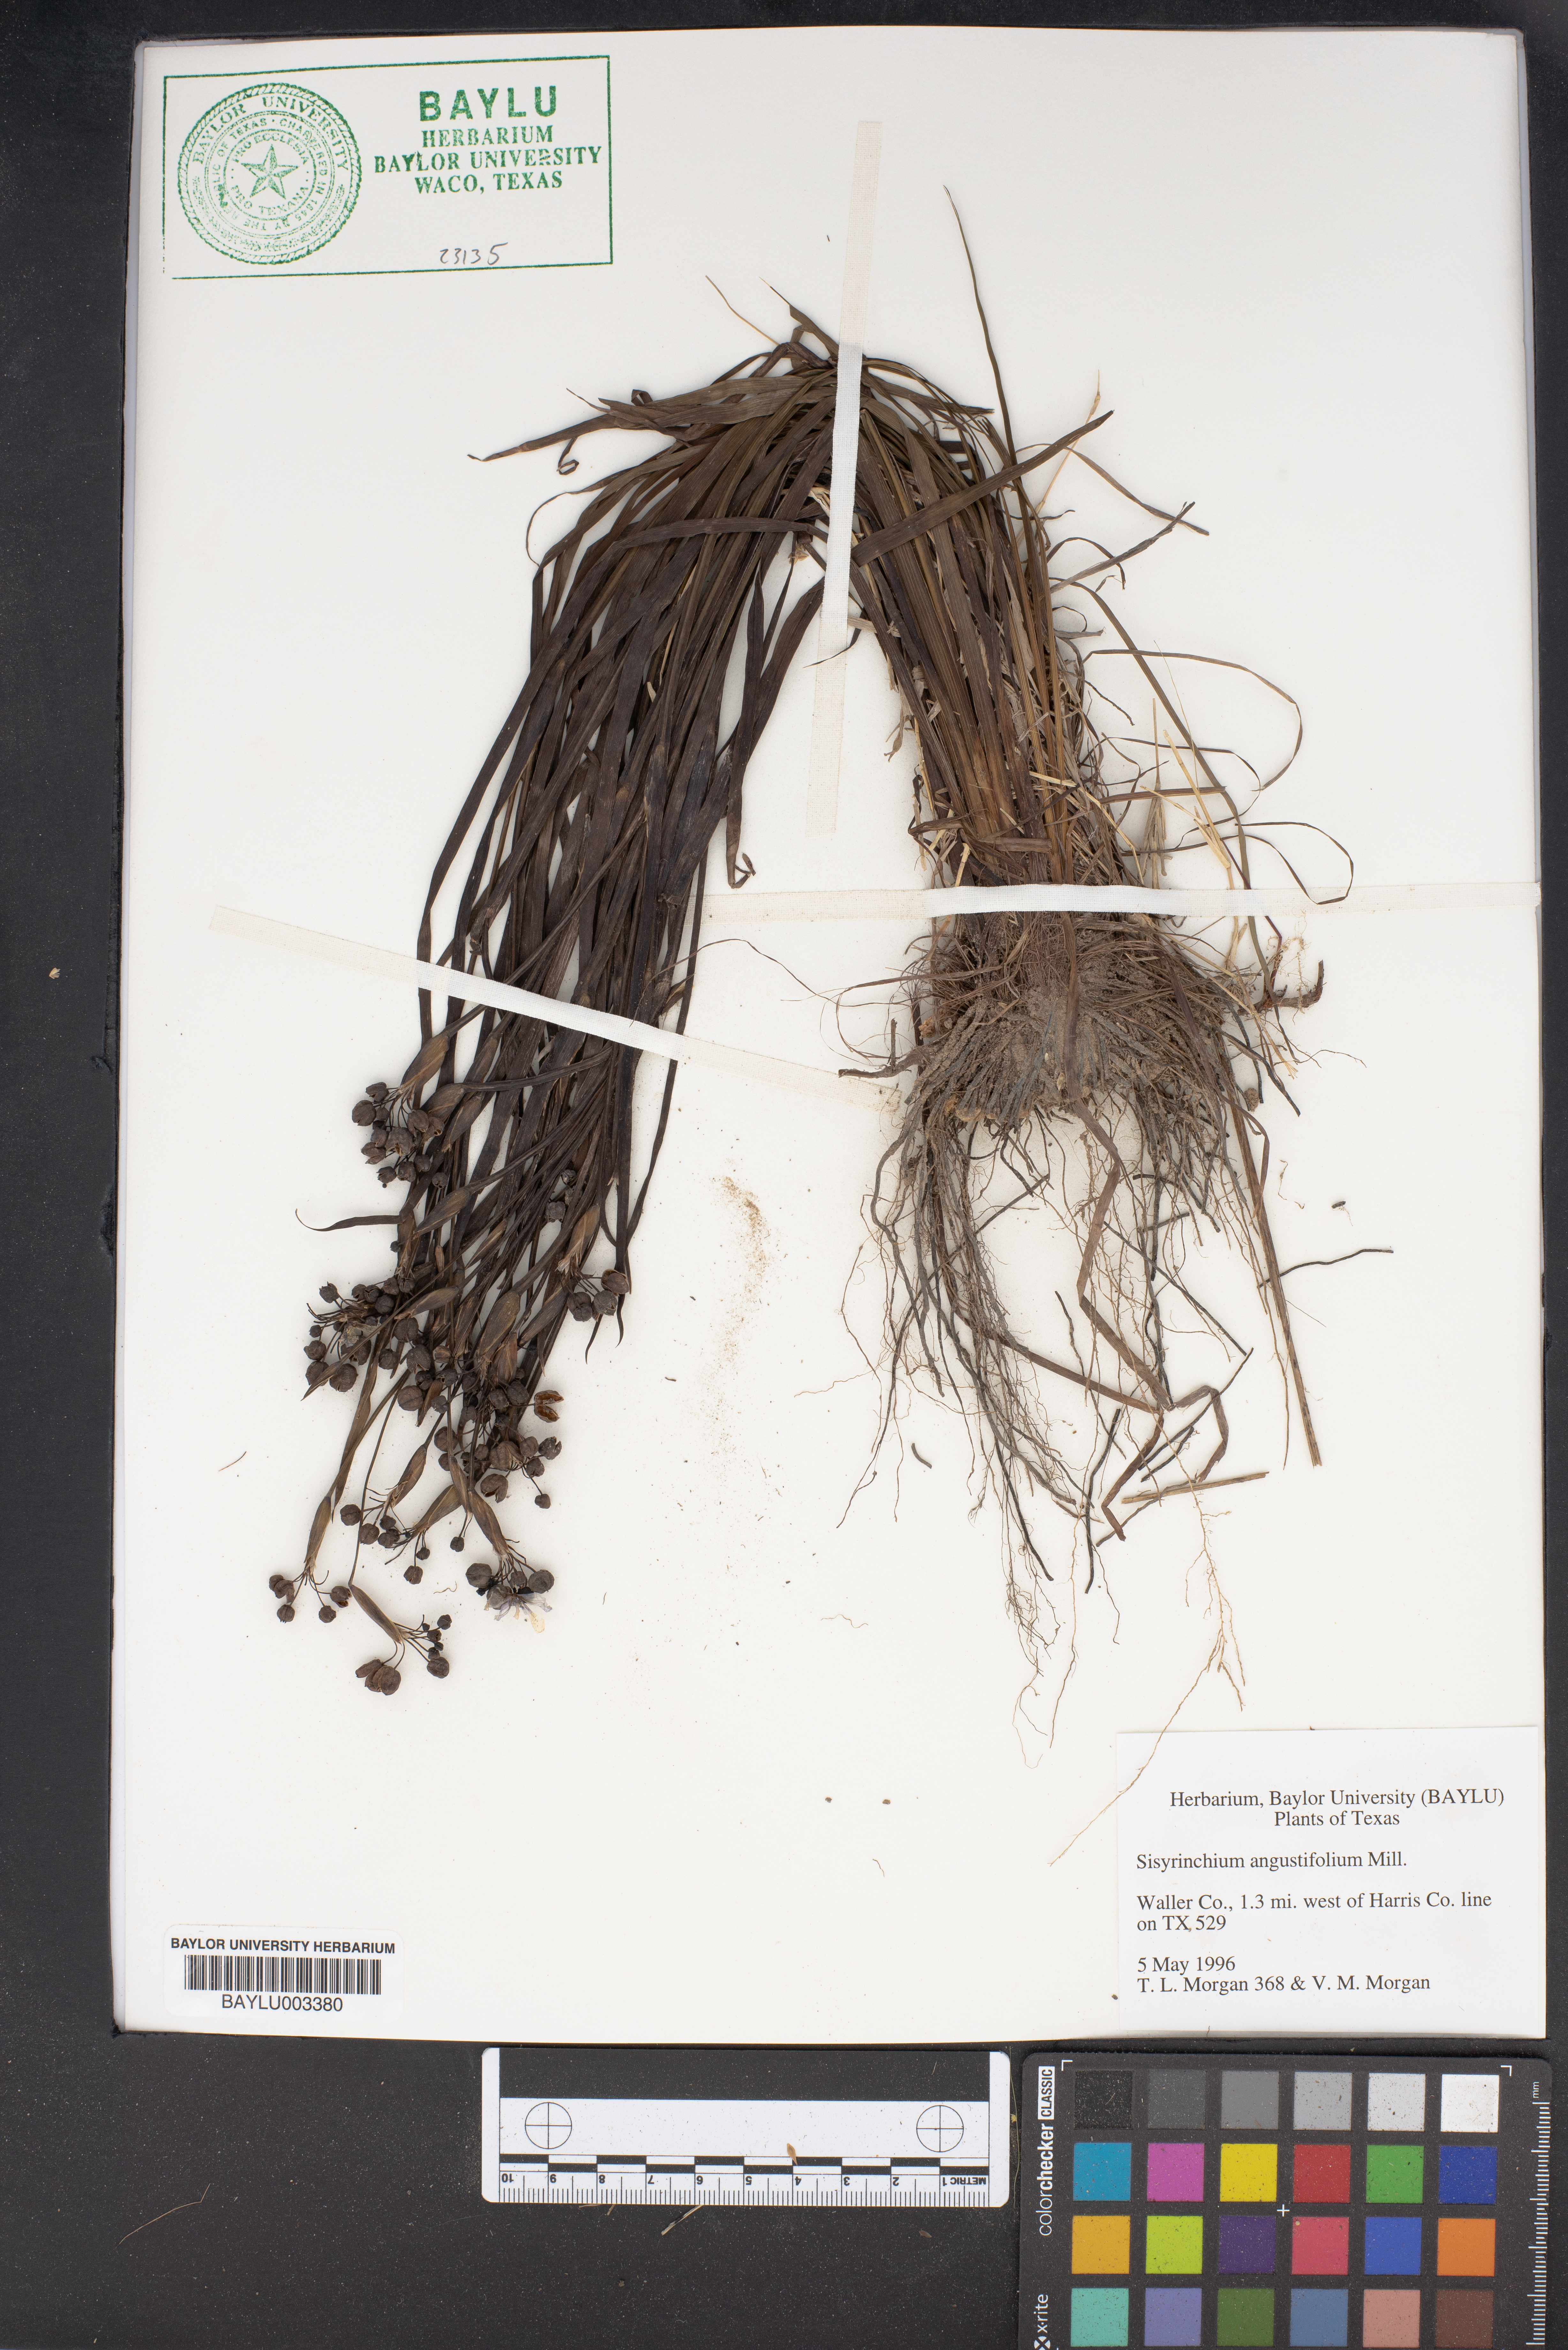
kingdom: Plantae
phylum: Tracheophyta
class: Liliopsida
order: Asparagales
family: Iridaceae
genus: Sisyrinchium
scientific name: Sisyrinchium angustifolium
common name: Narrow-leaf blue-eyed-grass
